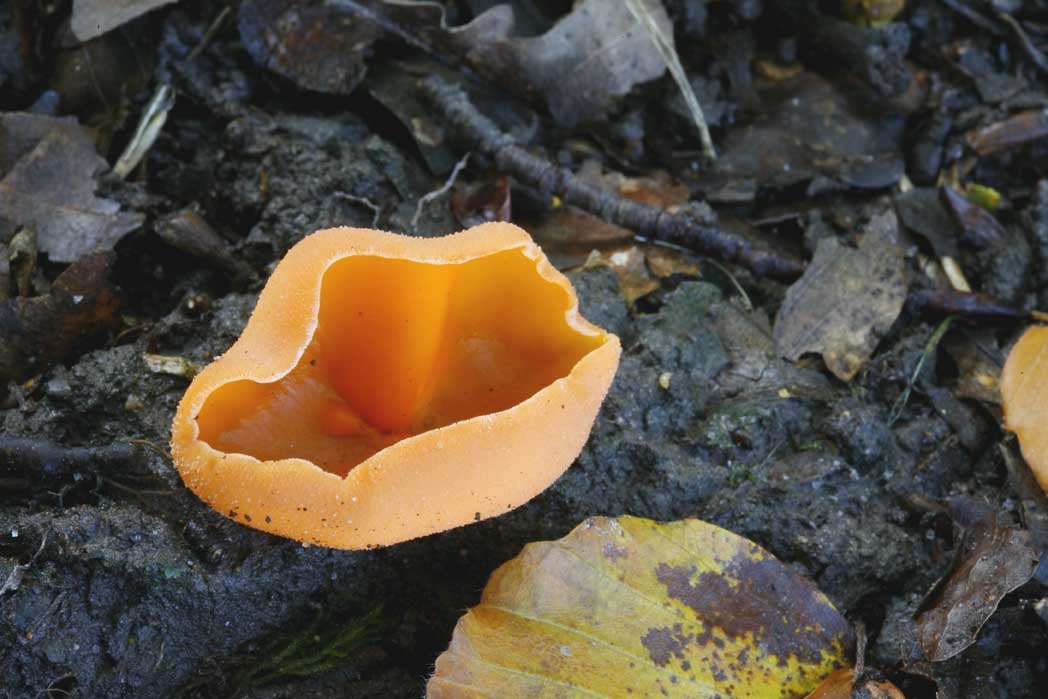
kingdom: Fungi
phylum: Ascomycota
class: Pezizomycetes
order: Pezizales
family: Pyronemataceae
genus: Aleuria
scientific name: Aleuria aurantia
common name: almindelig orangebæger
